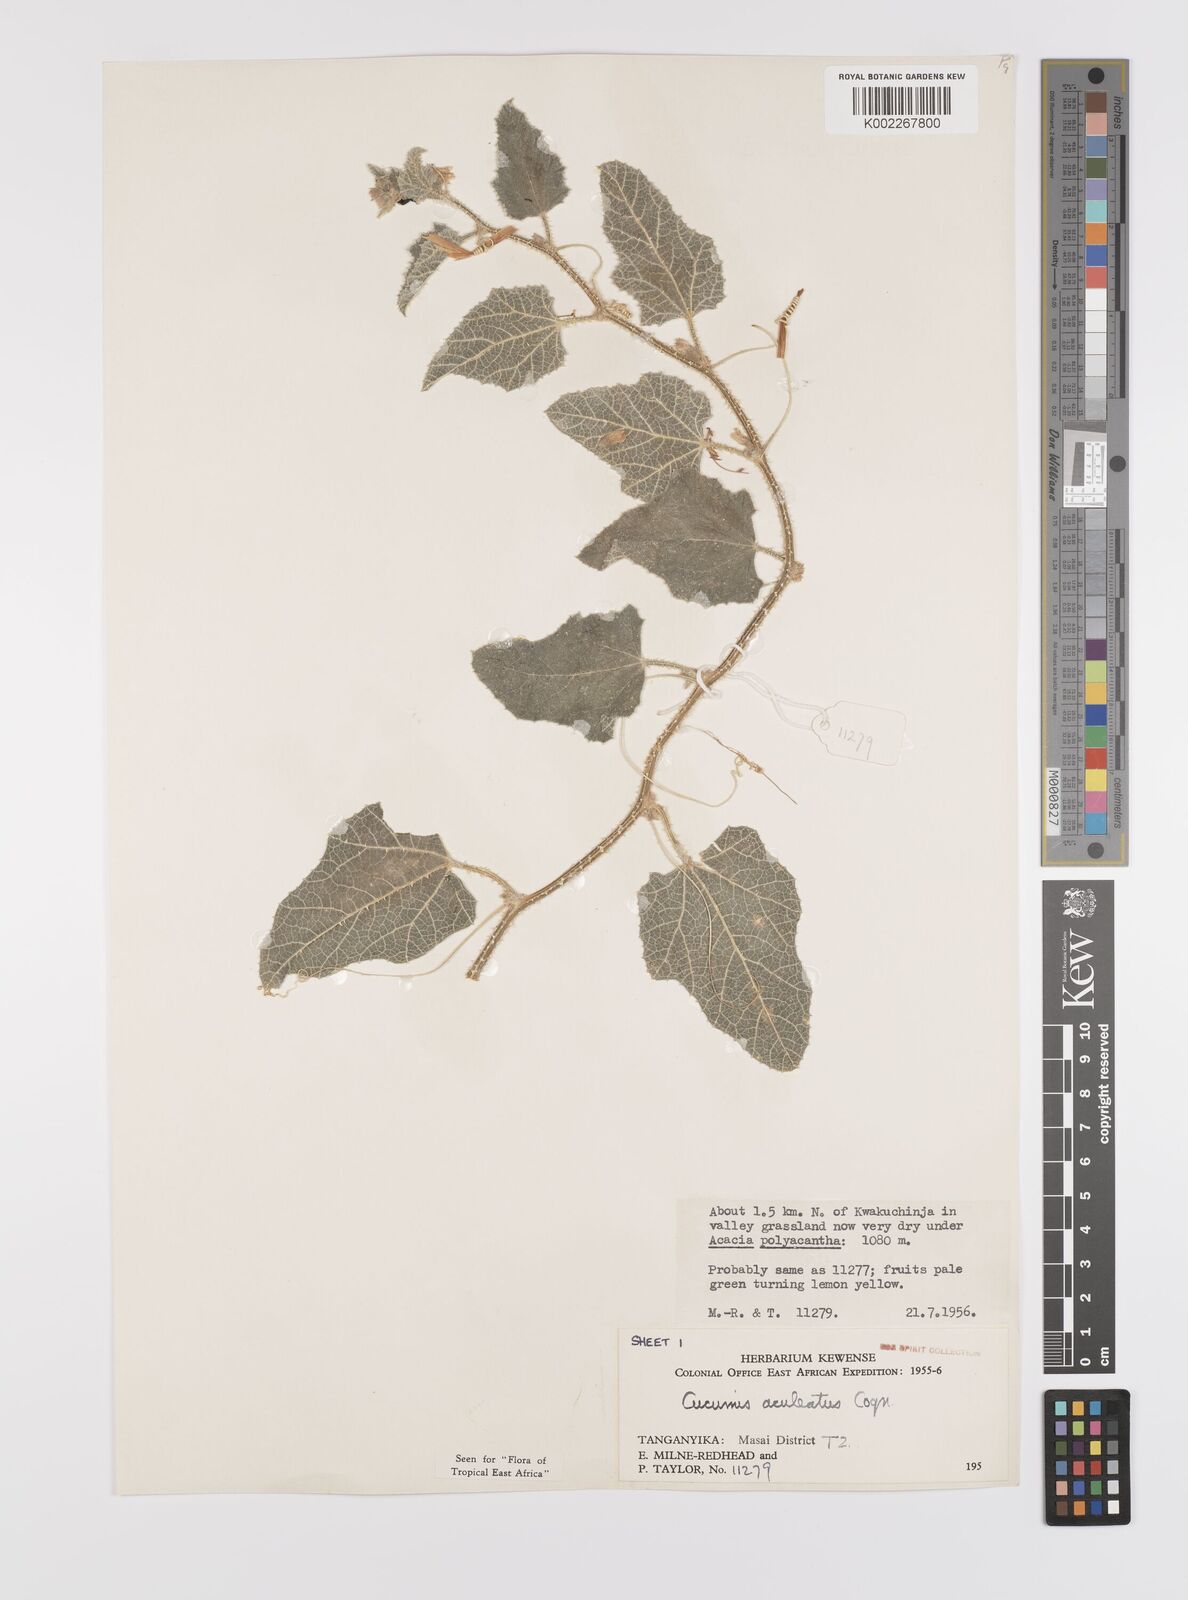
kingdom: Plantae
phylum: Tracheophyta
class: Magnoliopsida
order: Cucurbitales
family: Cucurbitaceae
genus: Cucumis
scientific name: Cucumis aculeatus
